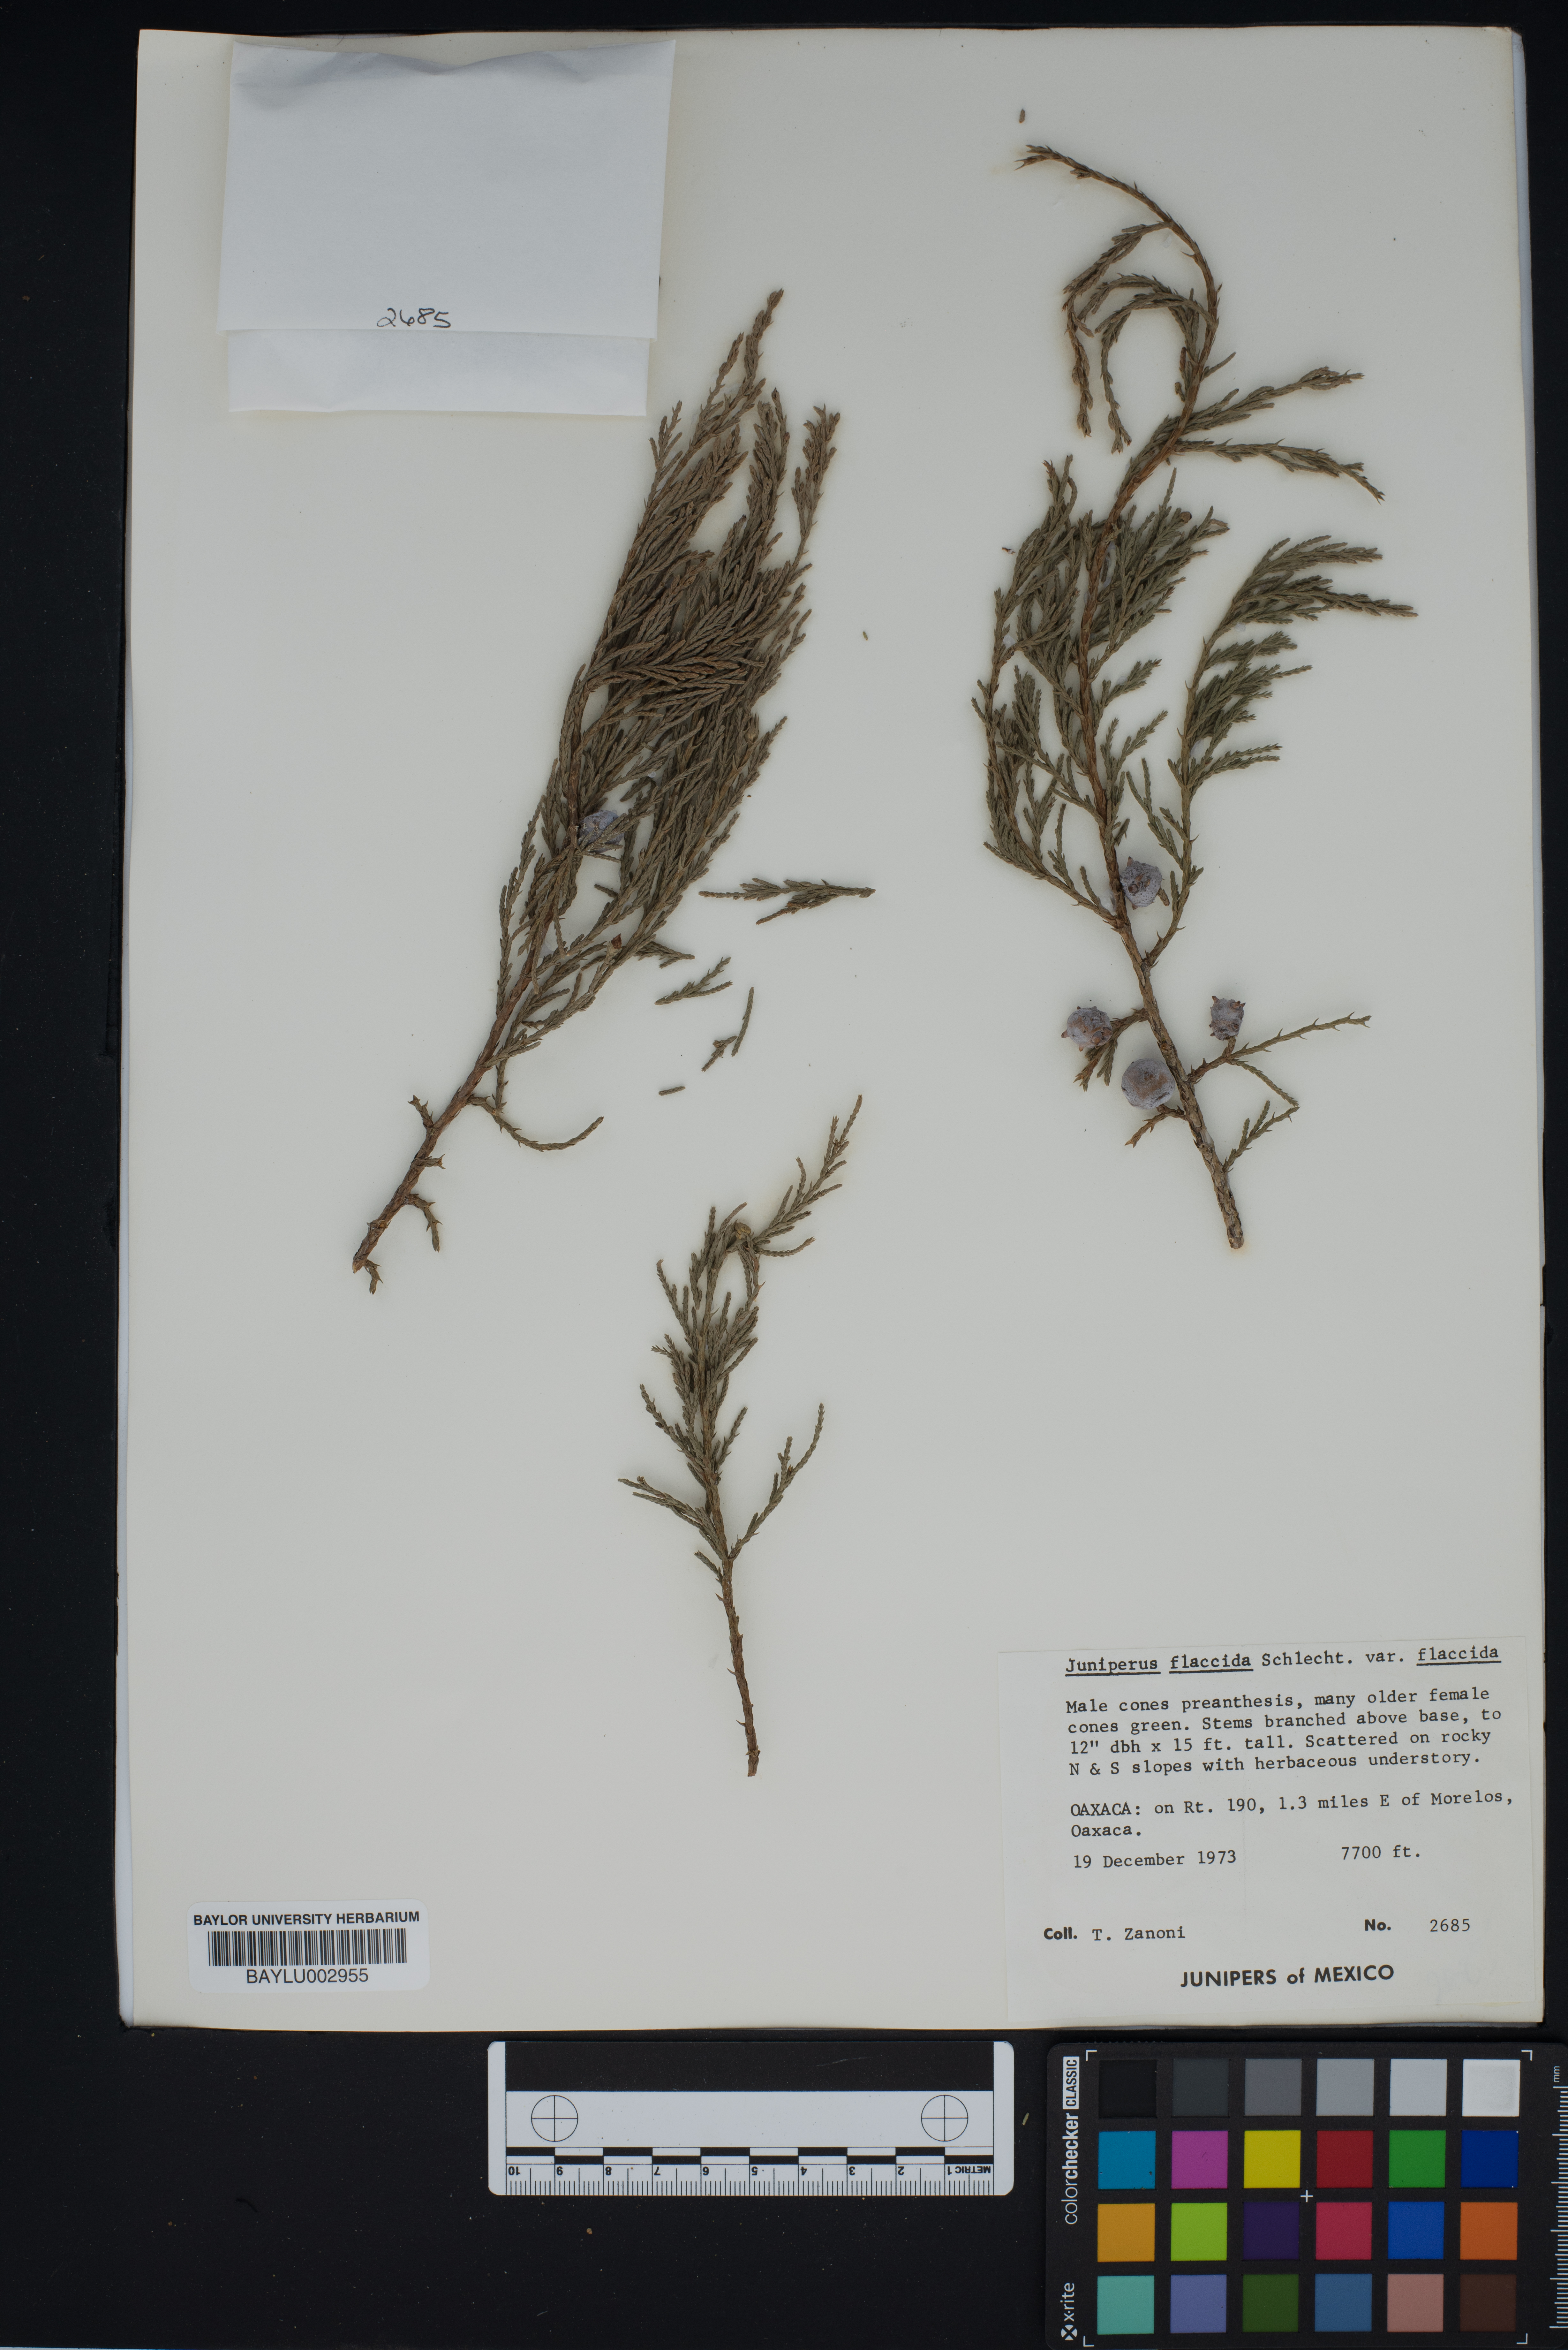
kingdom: Plantae
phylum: Tracheophyta
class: Pinopsida
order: Pinales
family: Cupressaceae
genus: Juniperus
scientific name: Juniperus flaccida
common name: Drooping juniper
